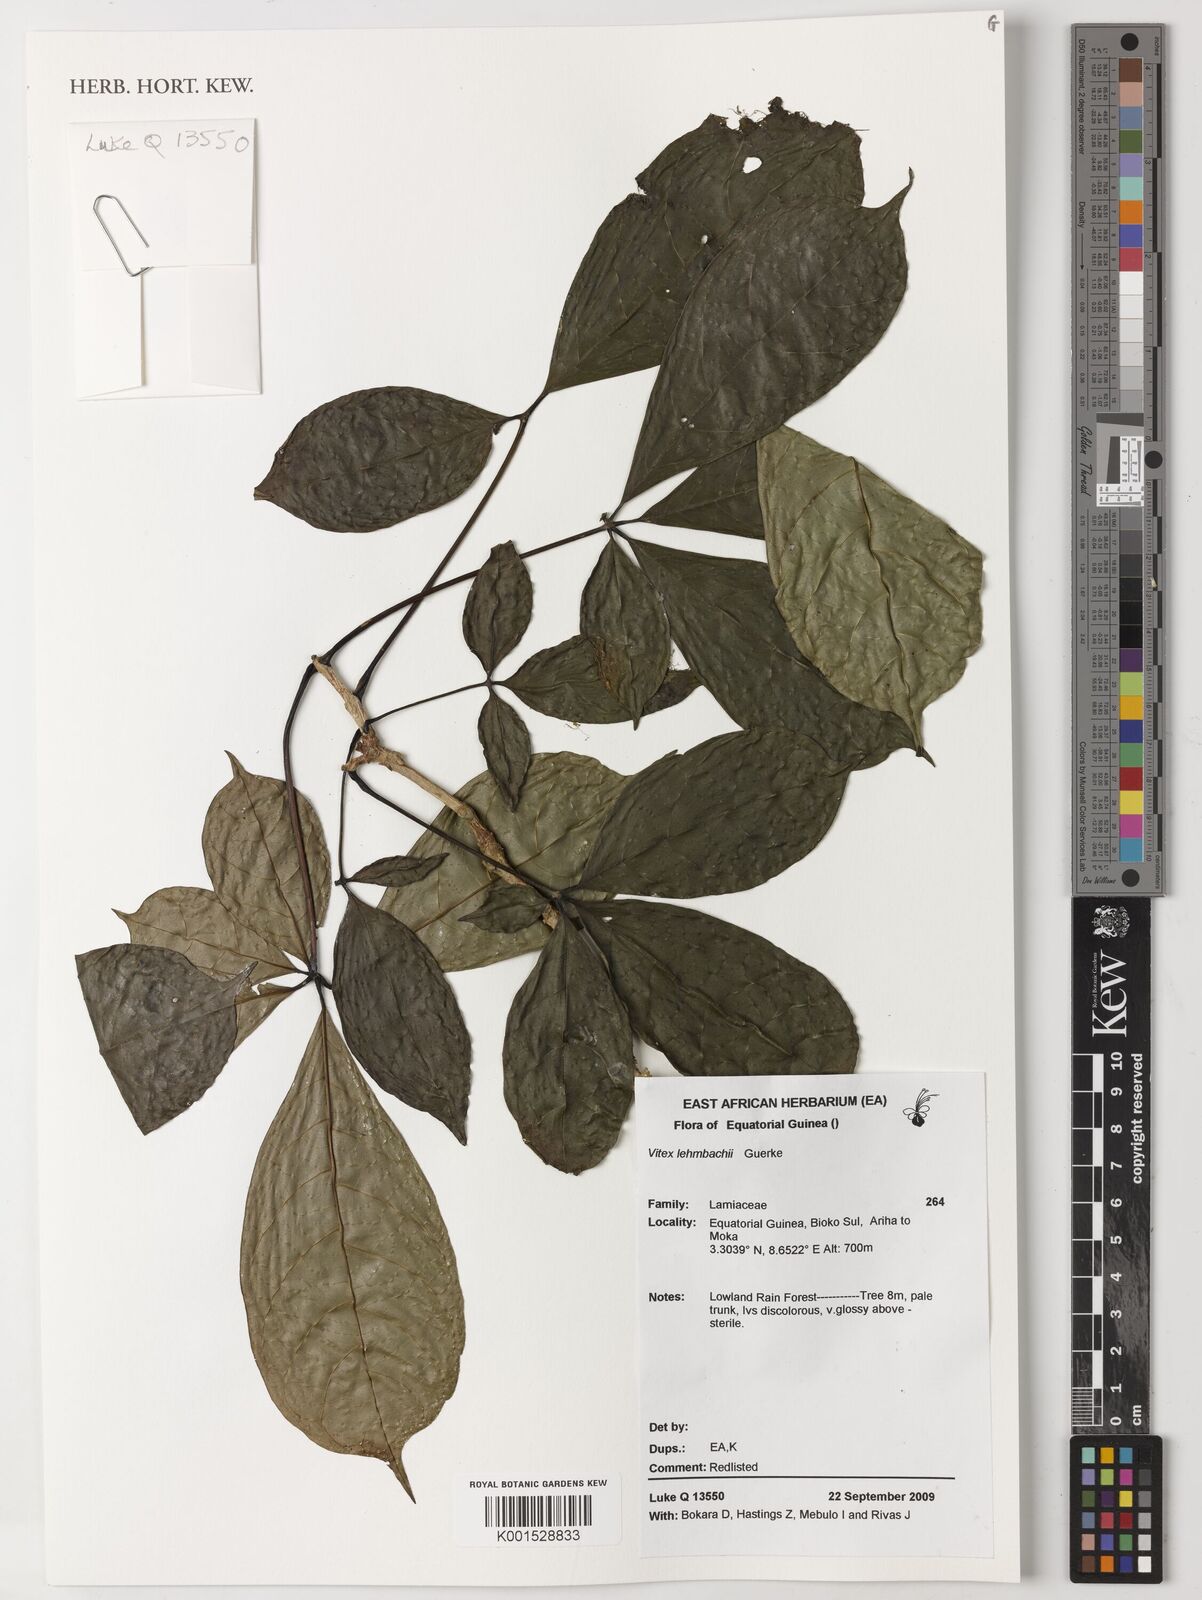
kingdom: Plantae
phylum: Tracheophyta
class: Magnoliopsida
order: Lamiales
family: Lamiaceae
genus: Vitex
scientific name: Vitex zenkeri
